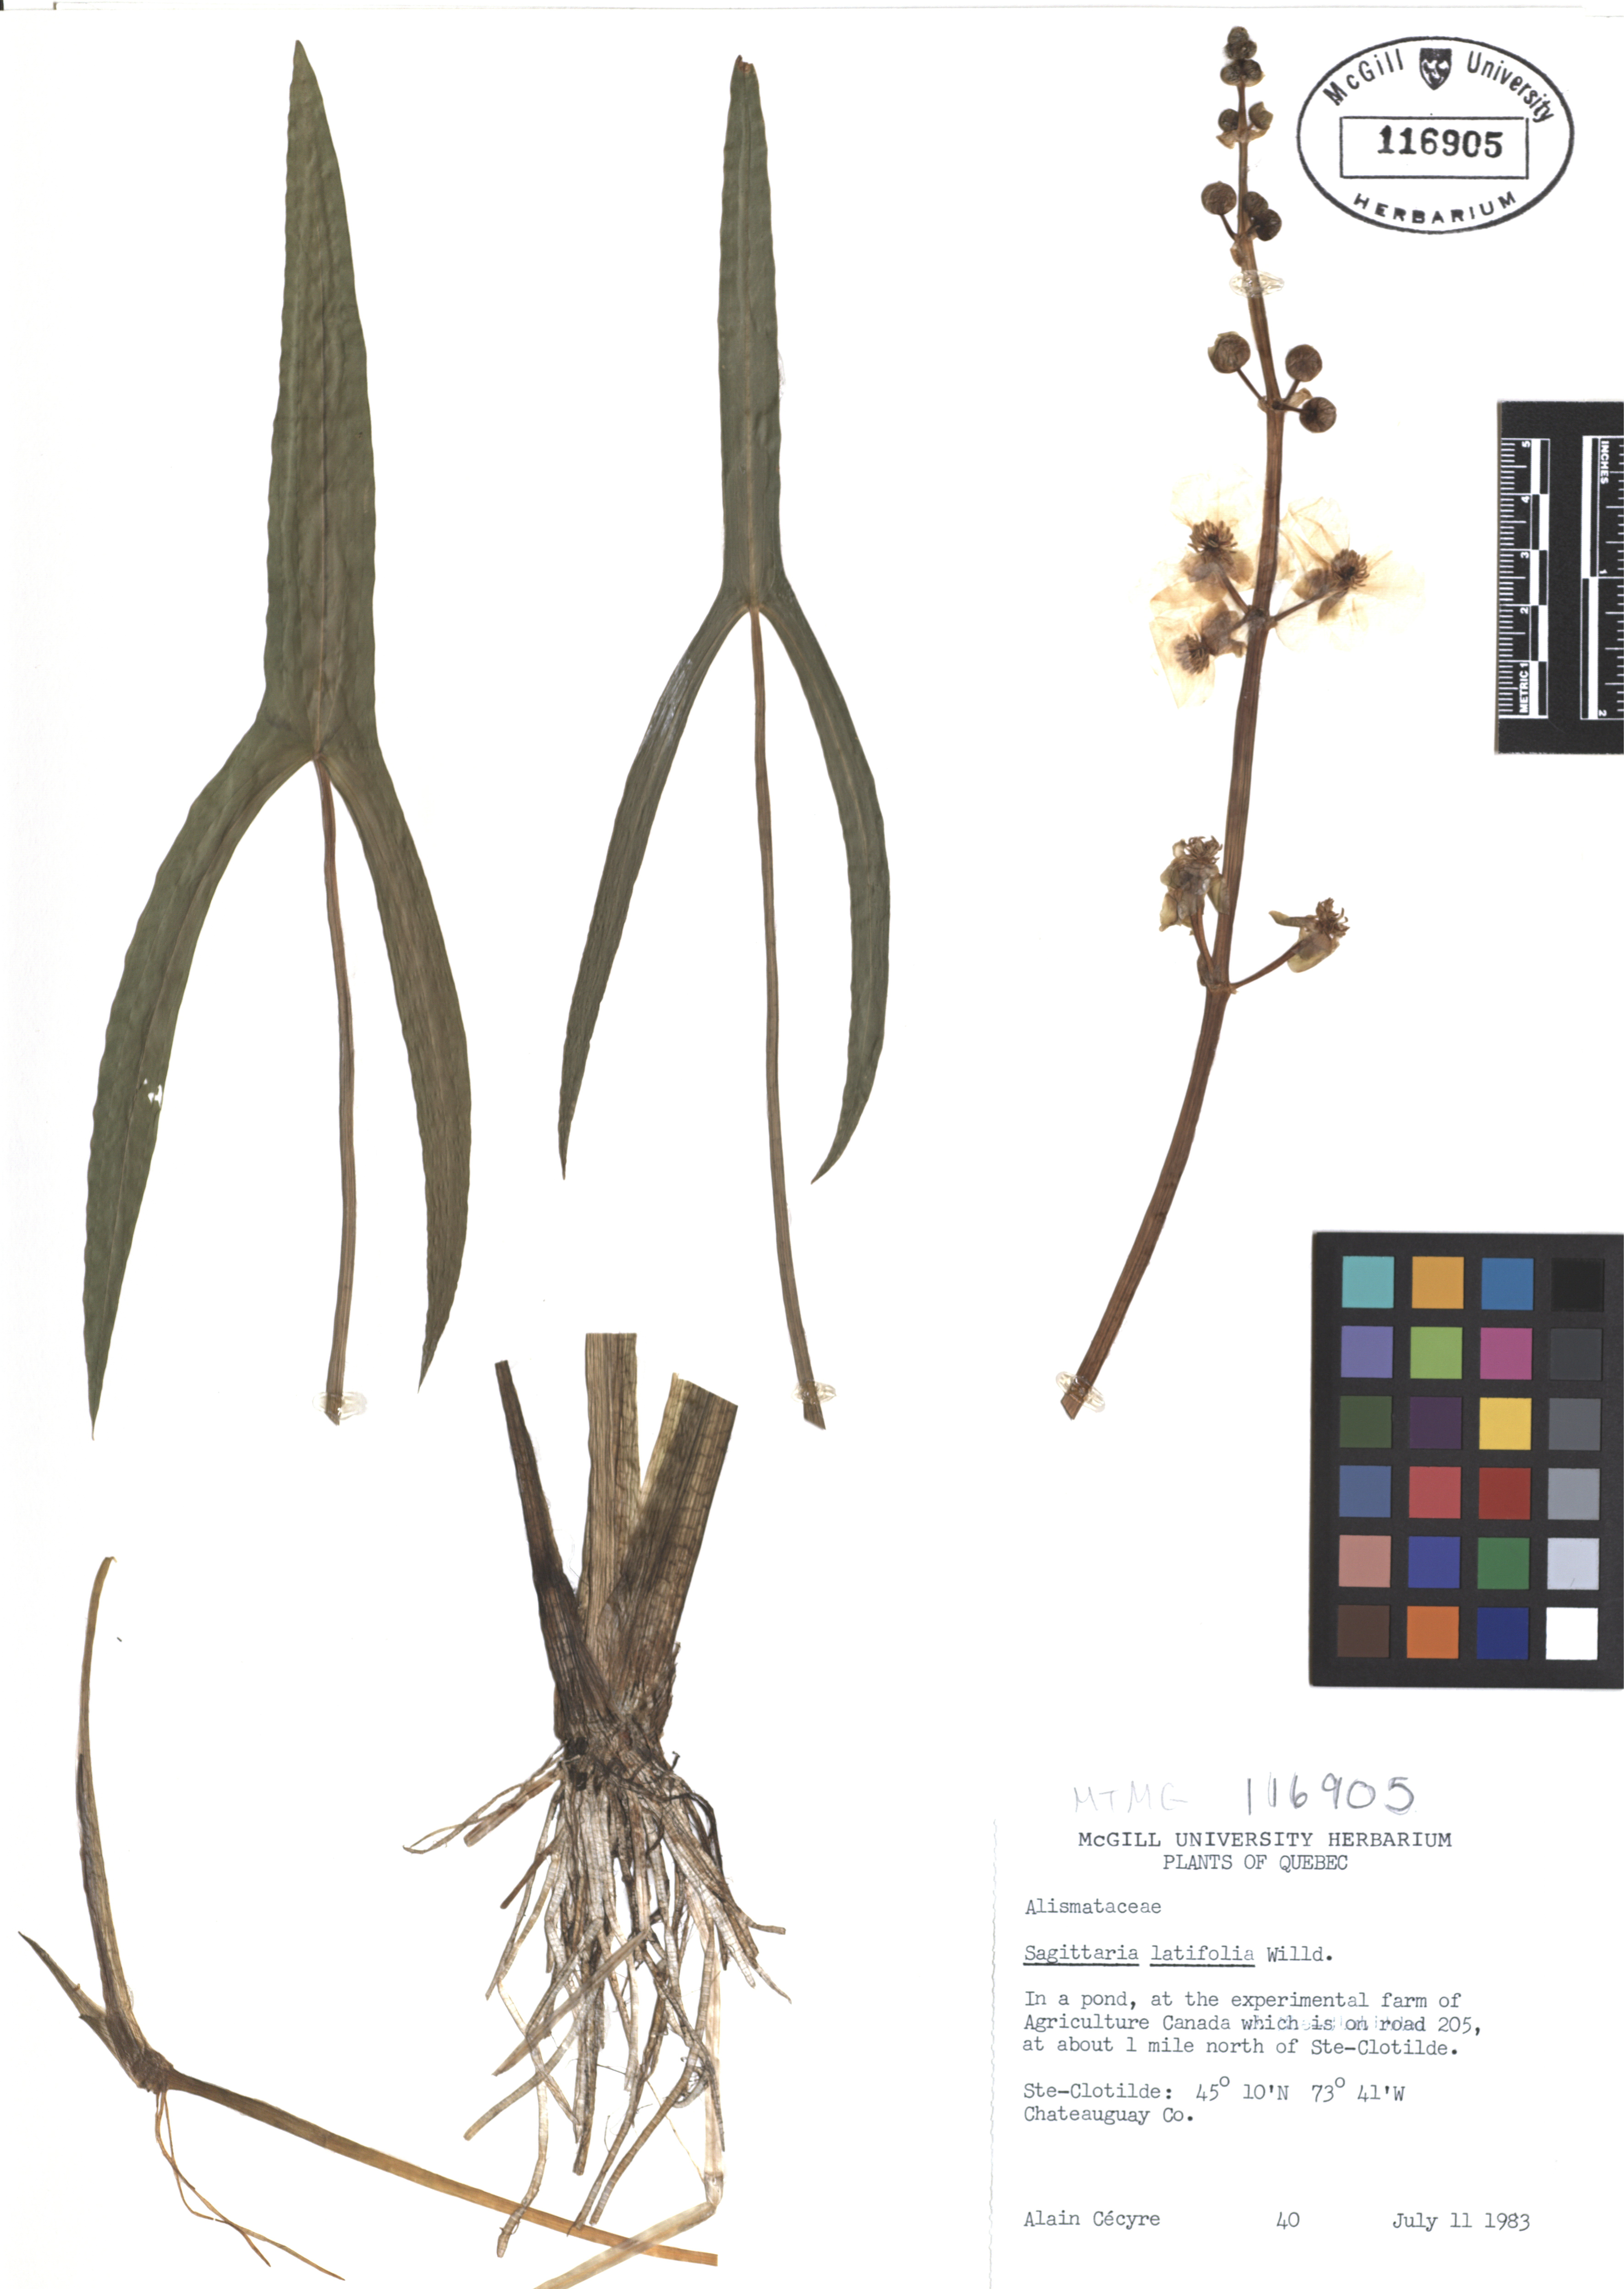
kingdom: Plantae
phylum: Tracheophyta
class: Liliopsida
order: Alismatales
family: Alismataceae
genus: Sagittaria
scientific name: Sagittaria latifolia
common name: Duck-potato
